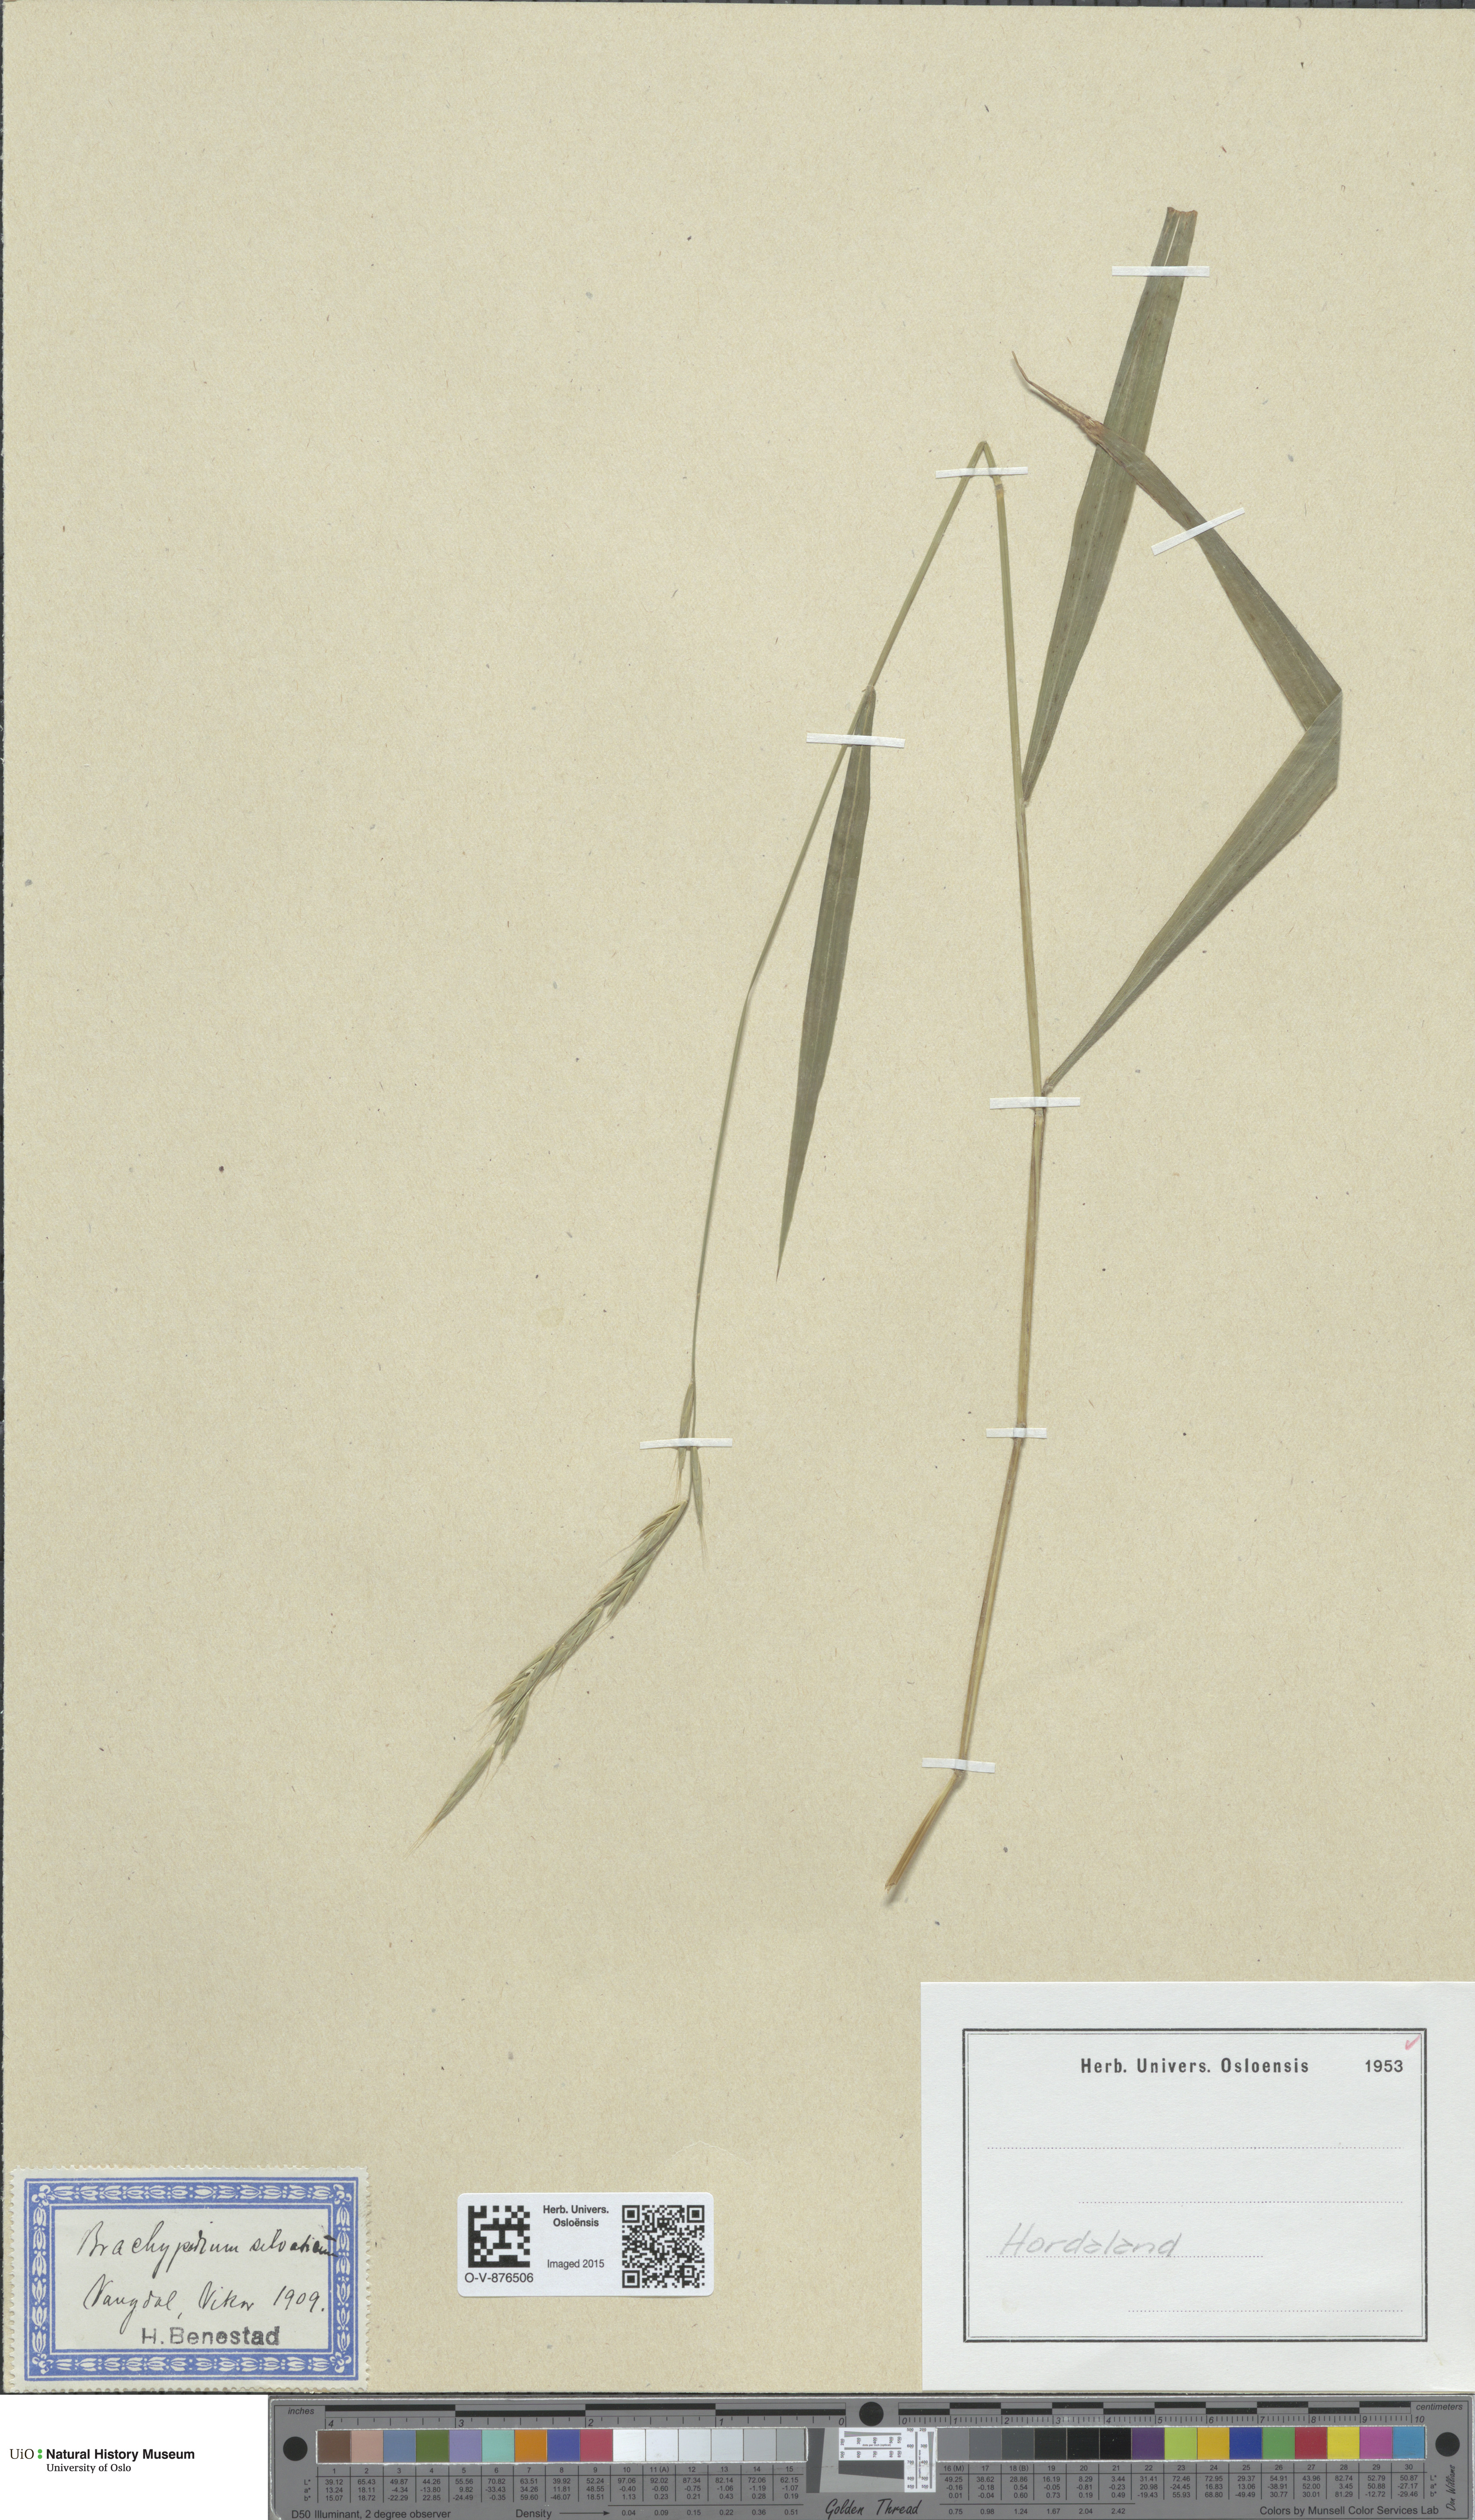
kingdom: Plantae
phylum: Tracheophyta
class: Liliopsida
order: Poales
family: Poaceae
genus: Brachypodium
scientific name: Brachypodium sylvaticum
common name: False-brome
